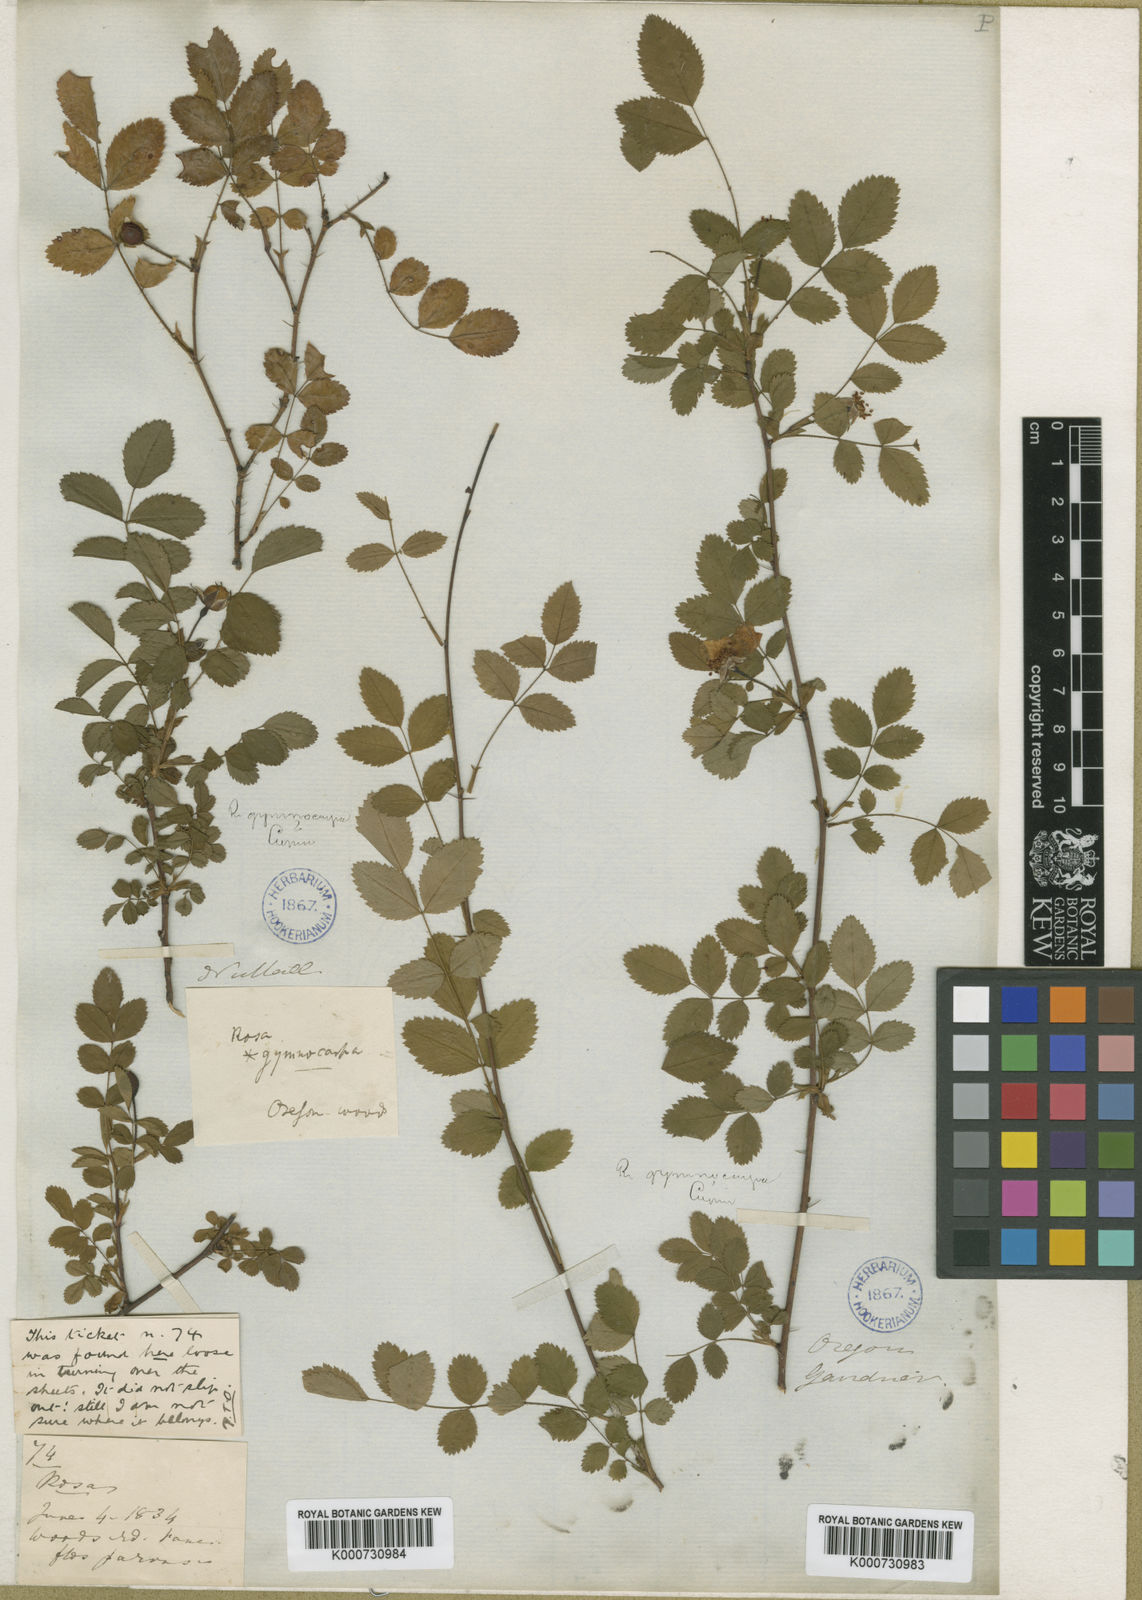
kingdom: Plantae
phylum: Tracheophyta
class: Magnoliopsida
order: Rosales
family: Rosaceae
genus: Rosa
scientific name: Rosa gymnocarpa
